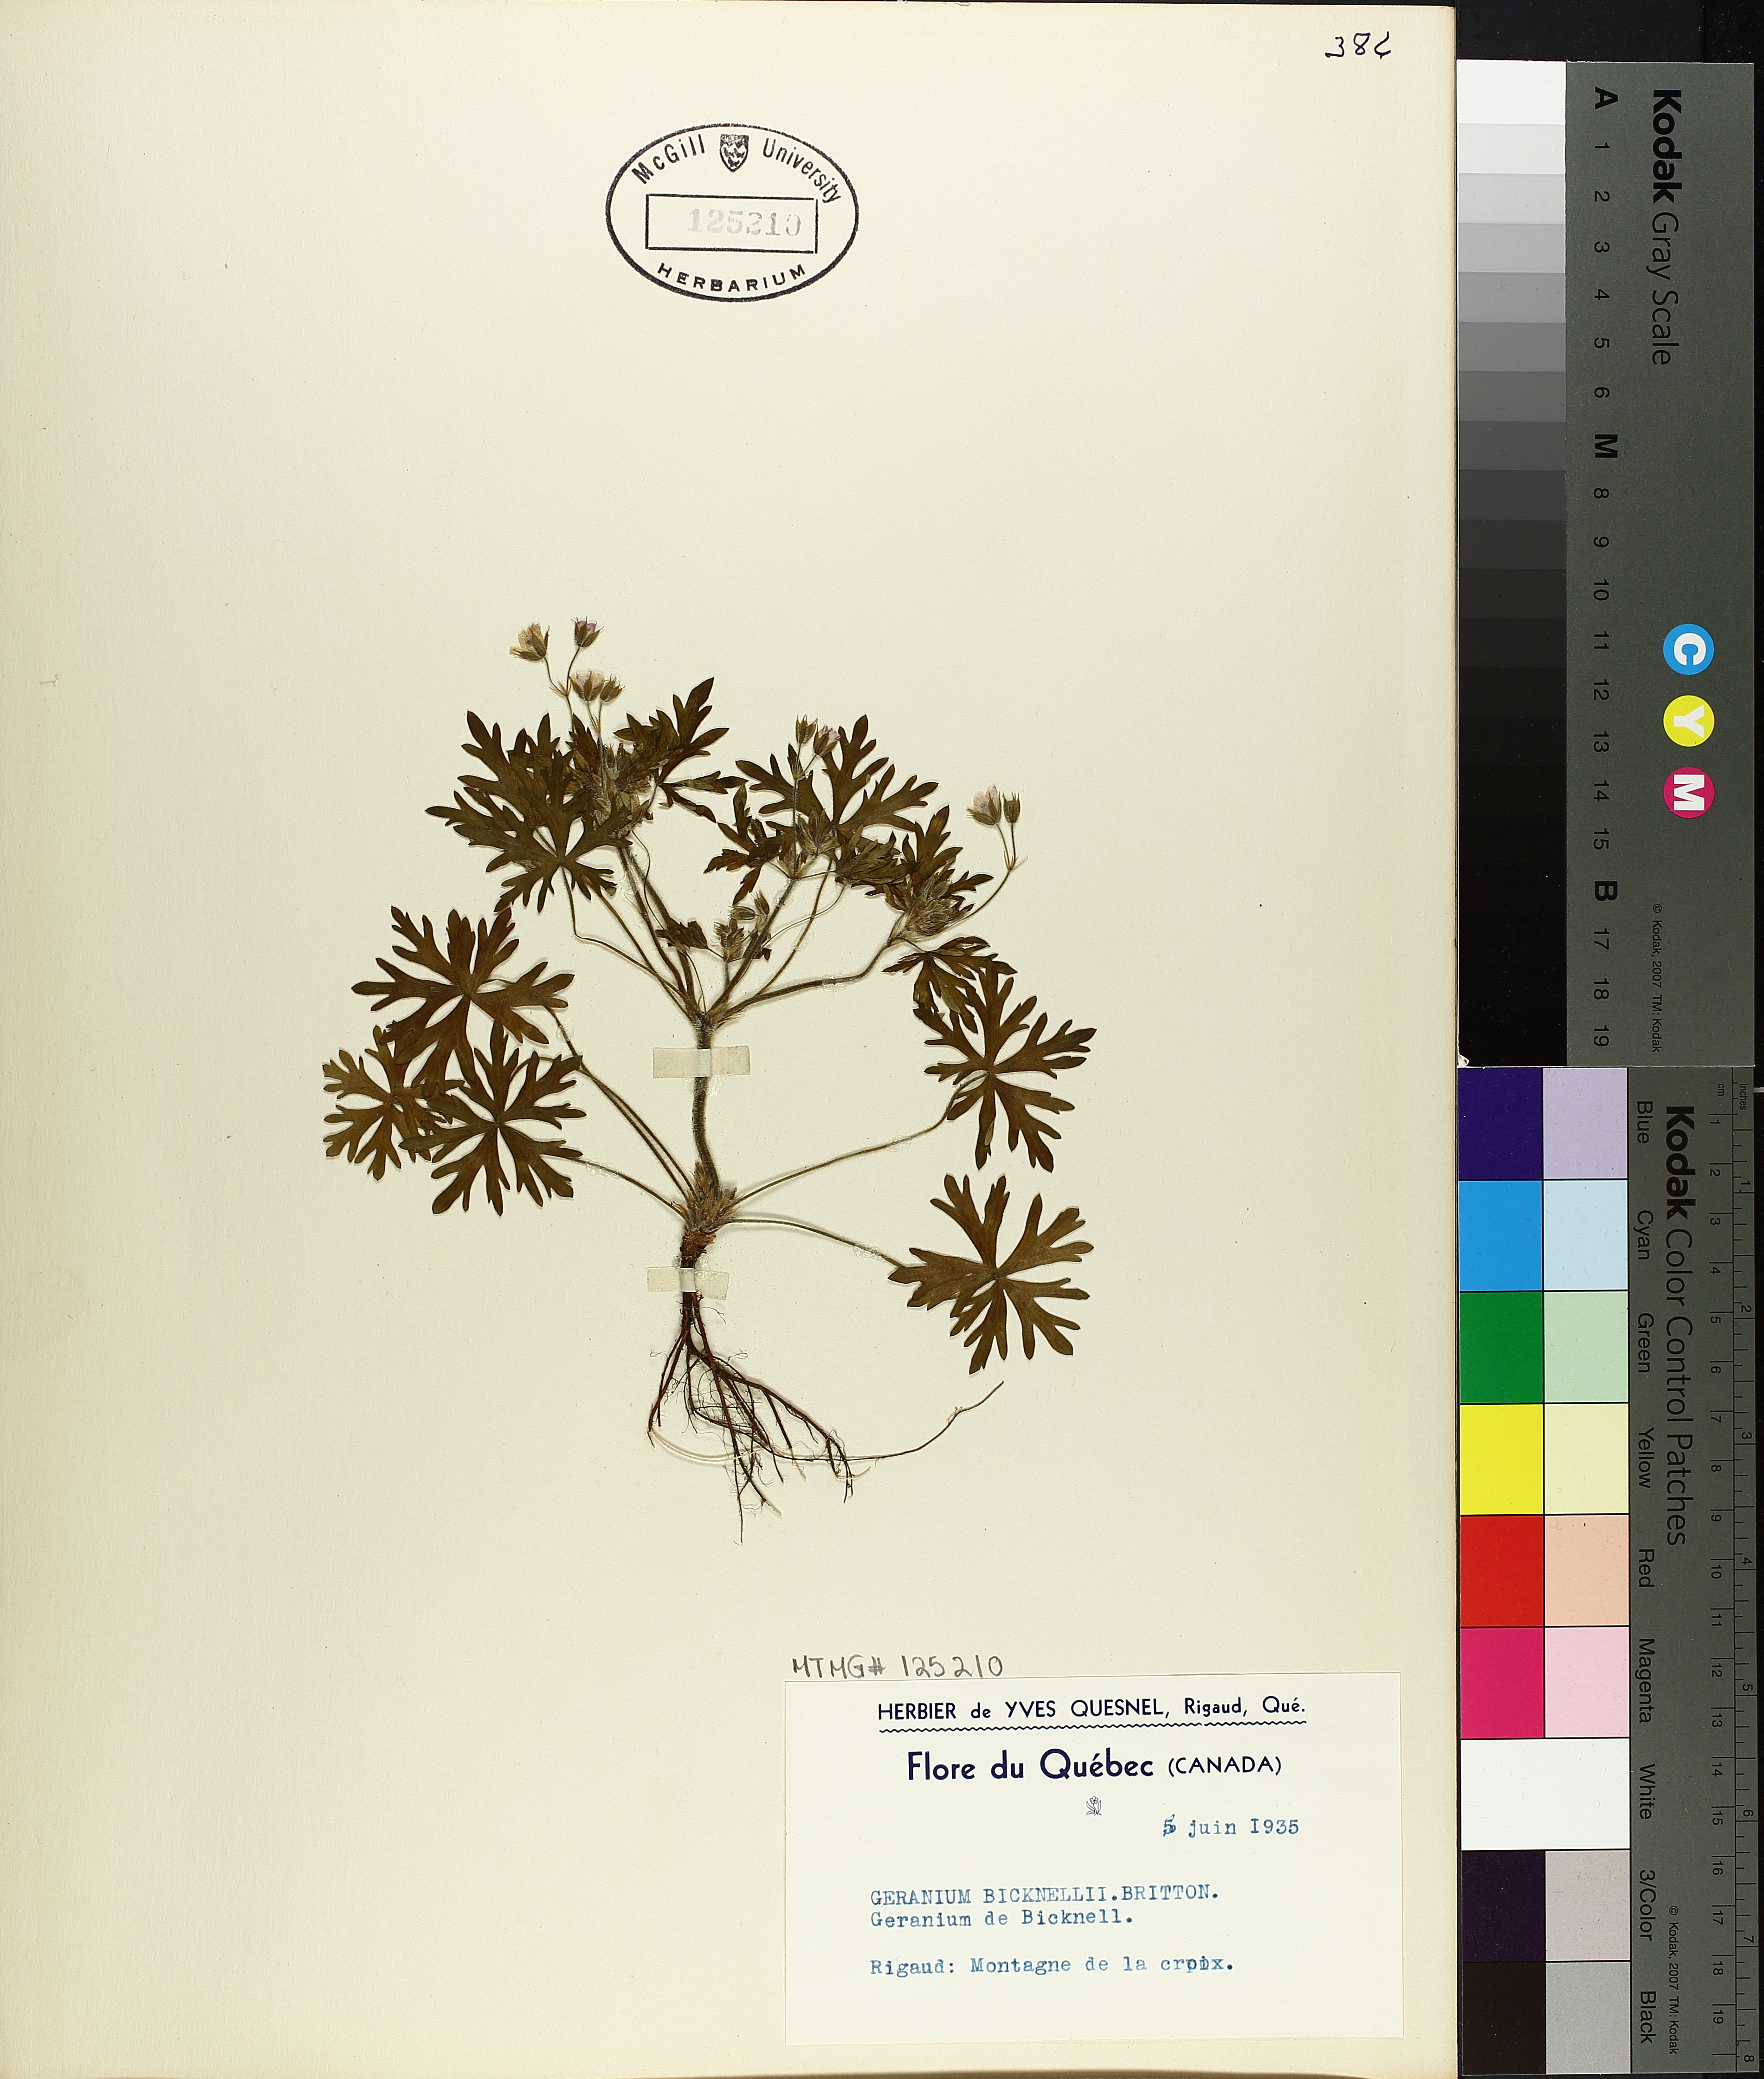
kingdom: Plantae
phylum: Tracheophyta
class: Magnoliopsida
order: Geraniales
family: Geraniaceae
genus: Geranium
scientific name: Geranium bicknellii
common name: Bicknell's cranesbill
